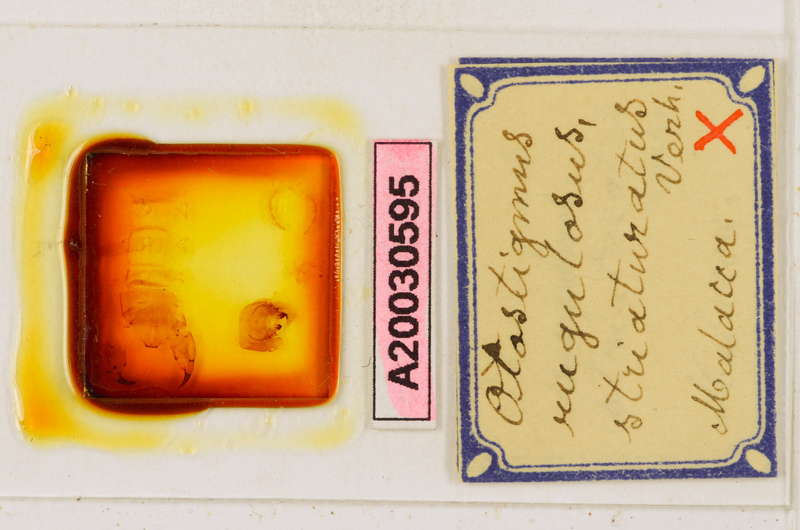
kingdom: Animalia
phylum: Arthropoda
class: Chilopoda
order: Scolopendromorpha
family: Scolopendridae
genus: Otostigmus
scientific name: Otostigmus rugulosus
